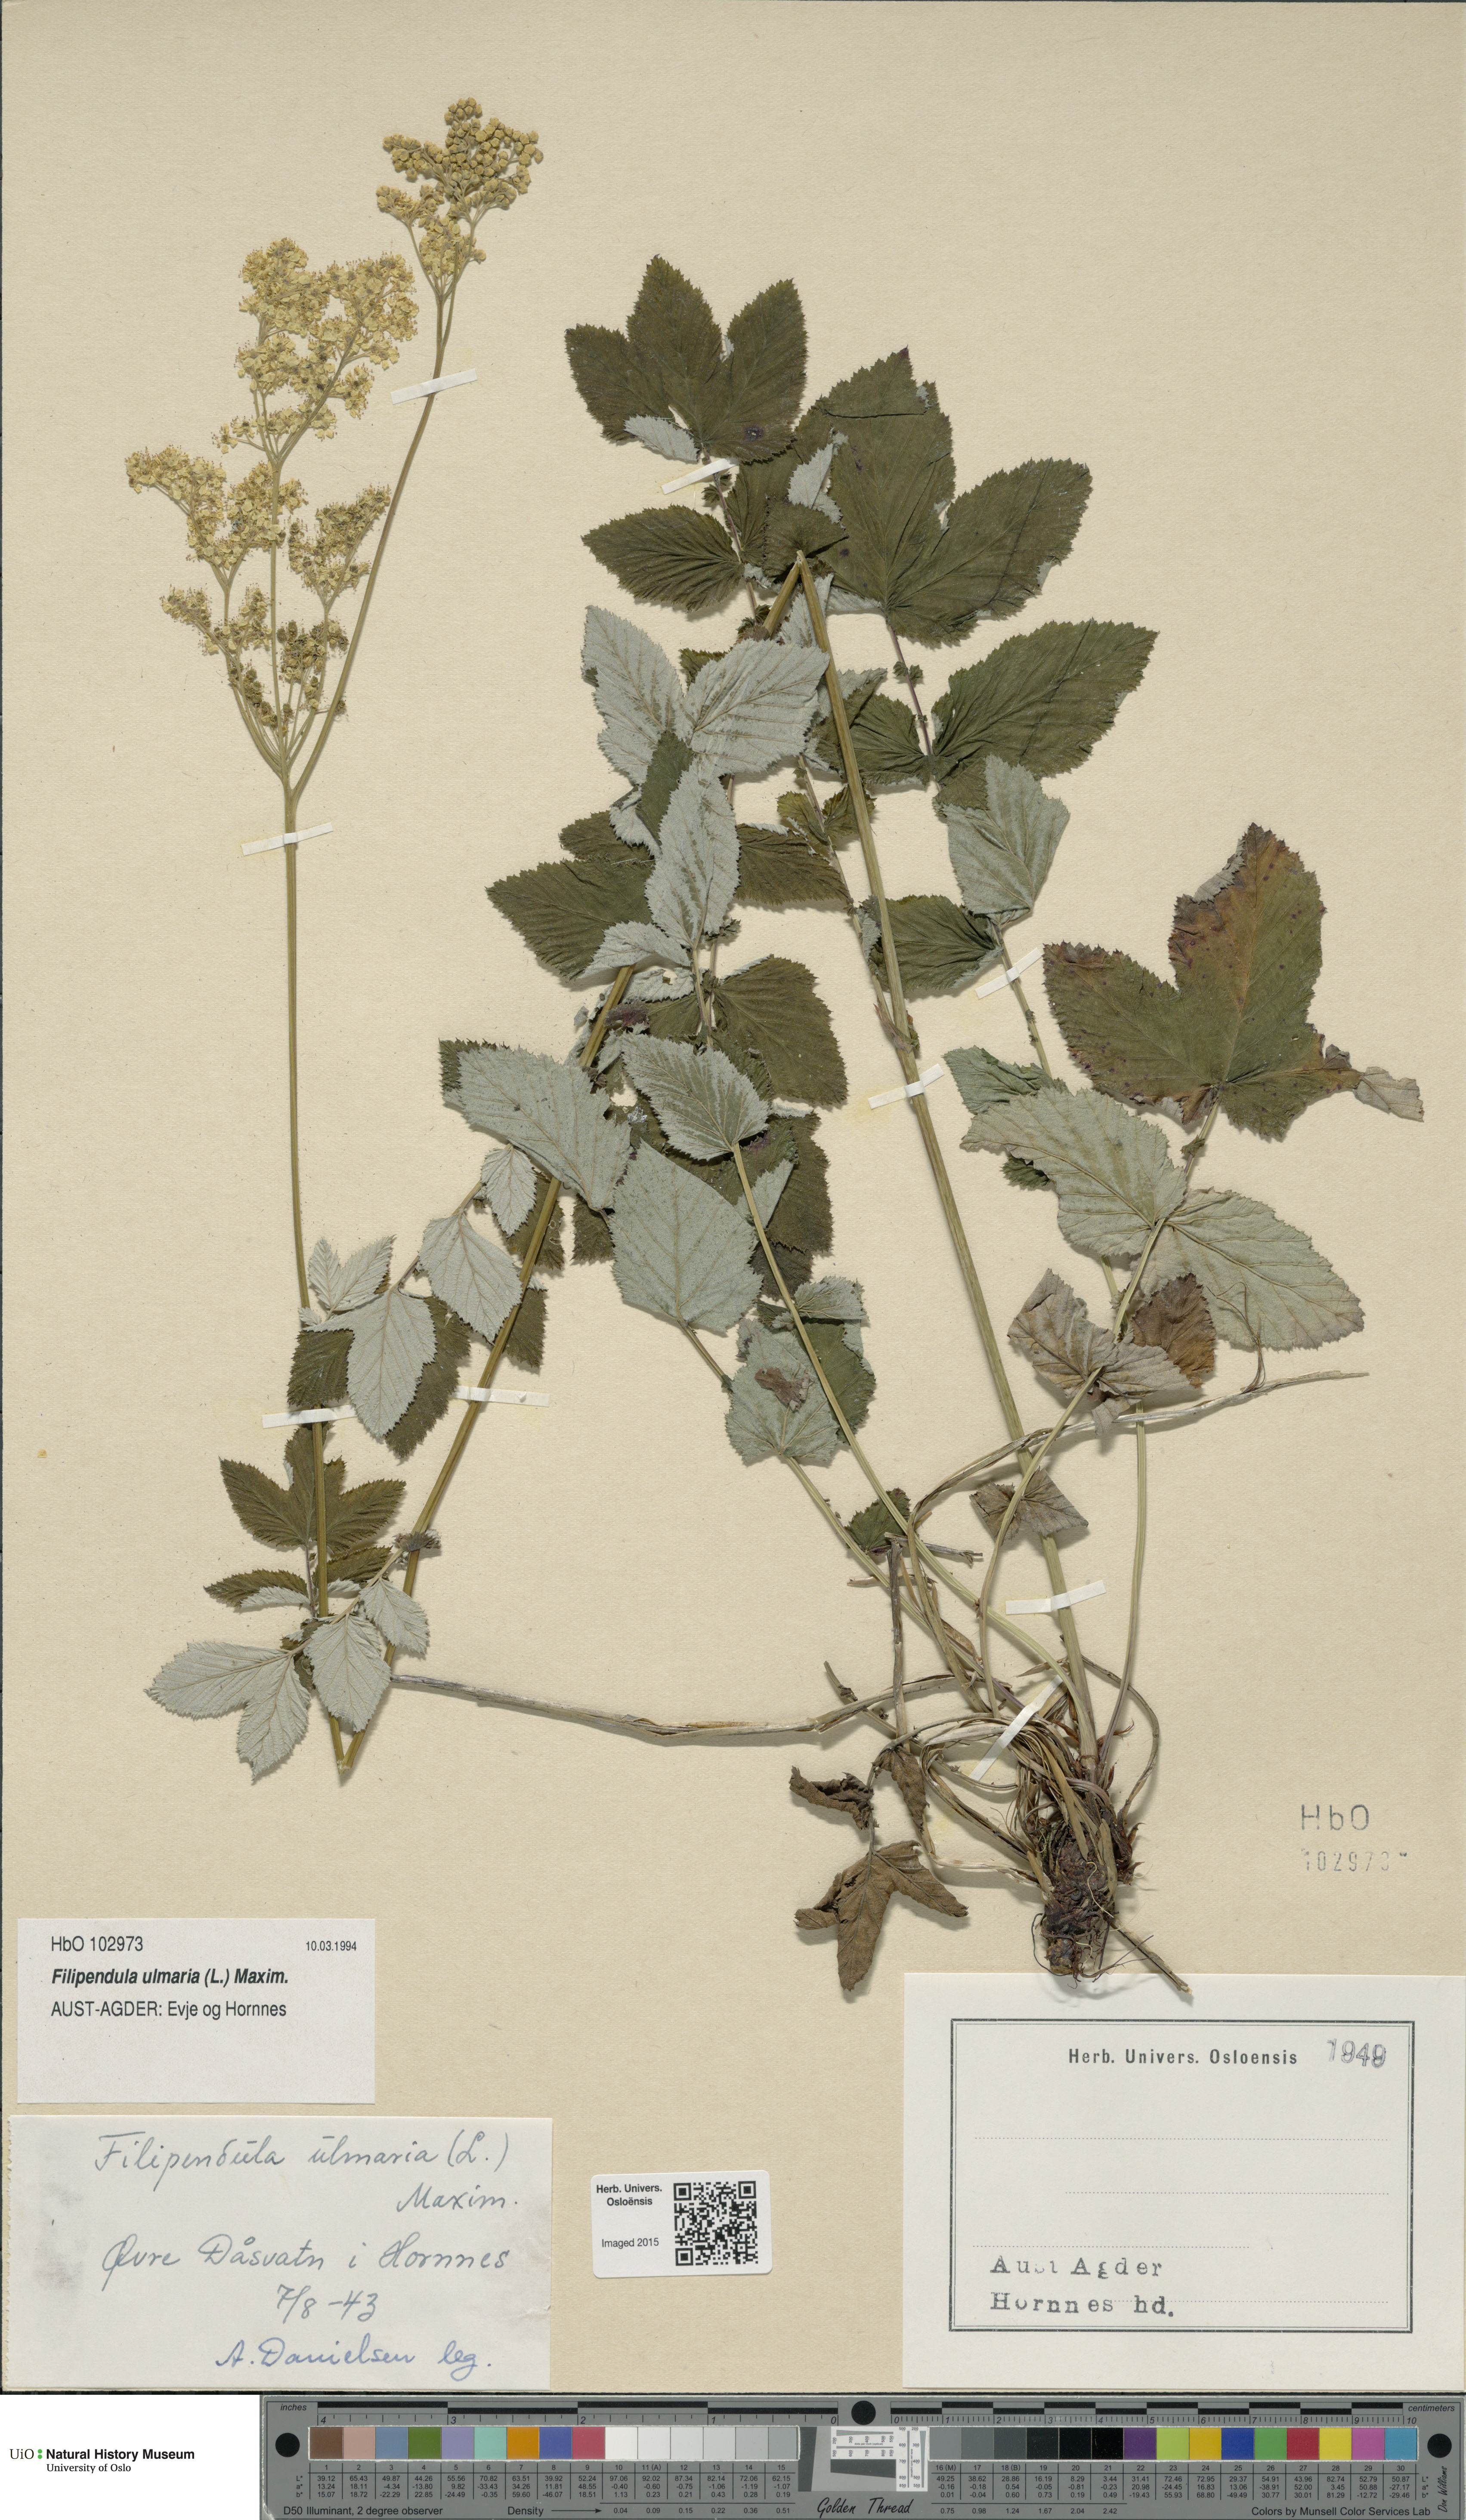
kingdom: Plantae
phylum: Tracheophyta
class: Magnoliopsida
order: Rosales
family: Rosaceae
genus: Filipendula
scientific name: Filipendula ulmaria
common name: Meadowsweet
